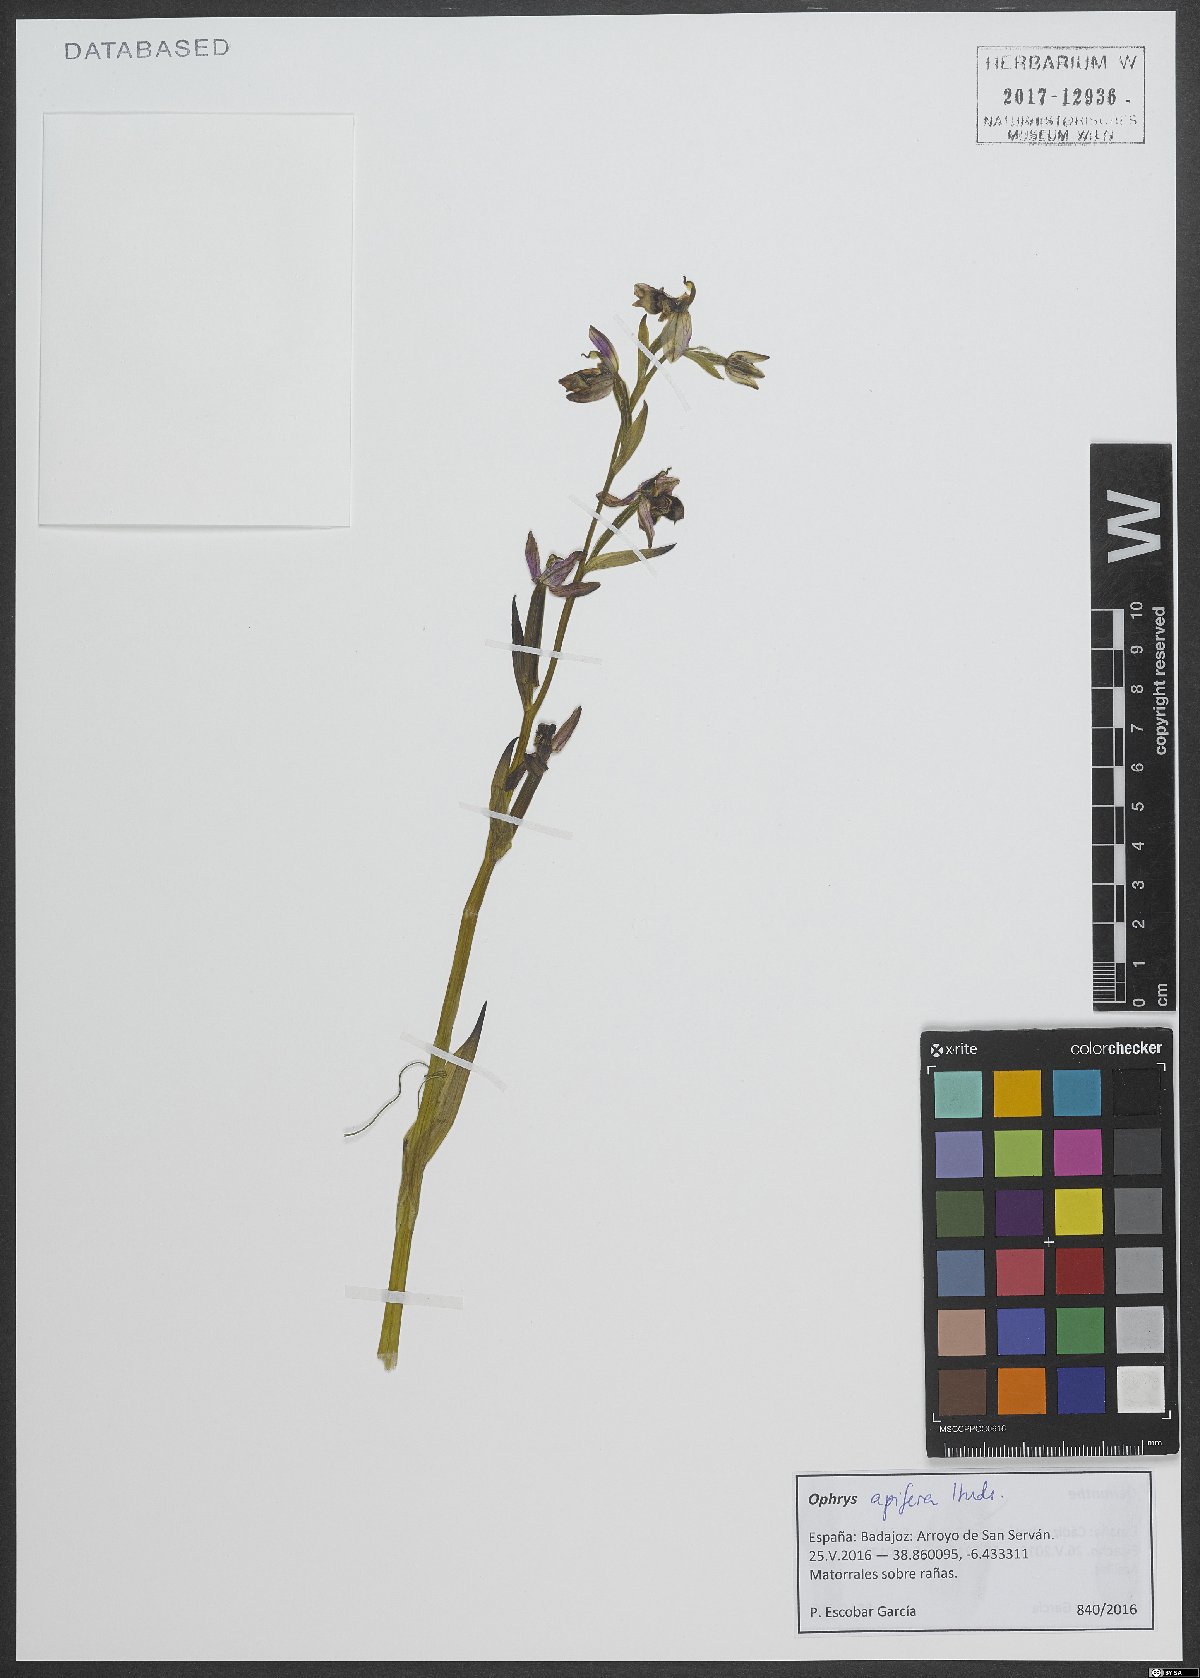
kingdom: Plantae
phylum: Tracheophyta
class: Liliopsida
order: Asparagales
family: Orchidaceae
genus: Ophrys
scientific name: Ophrys apifera
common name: Bee orchid
